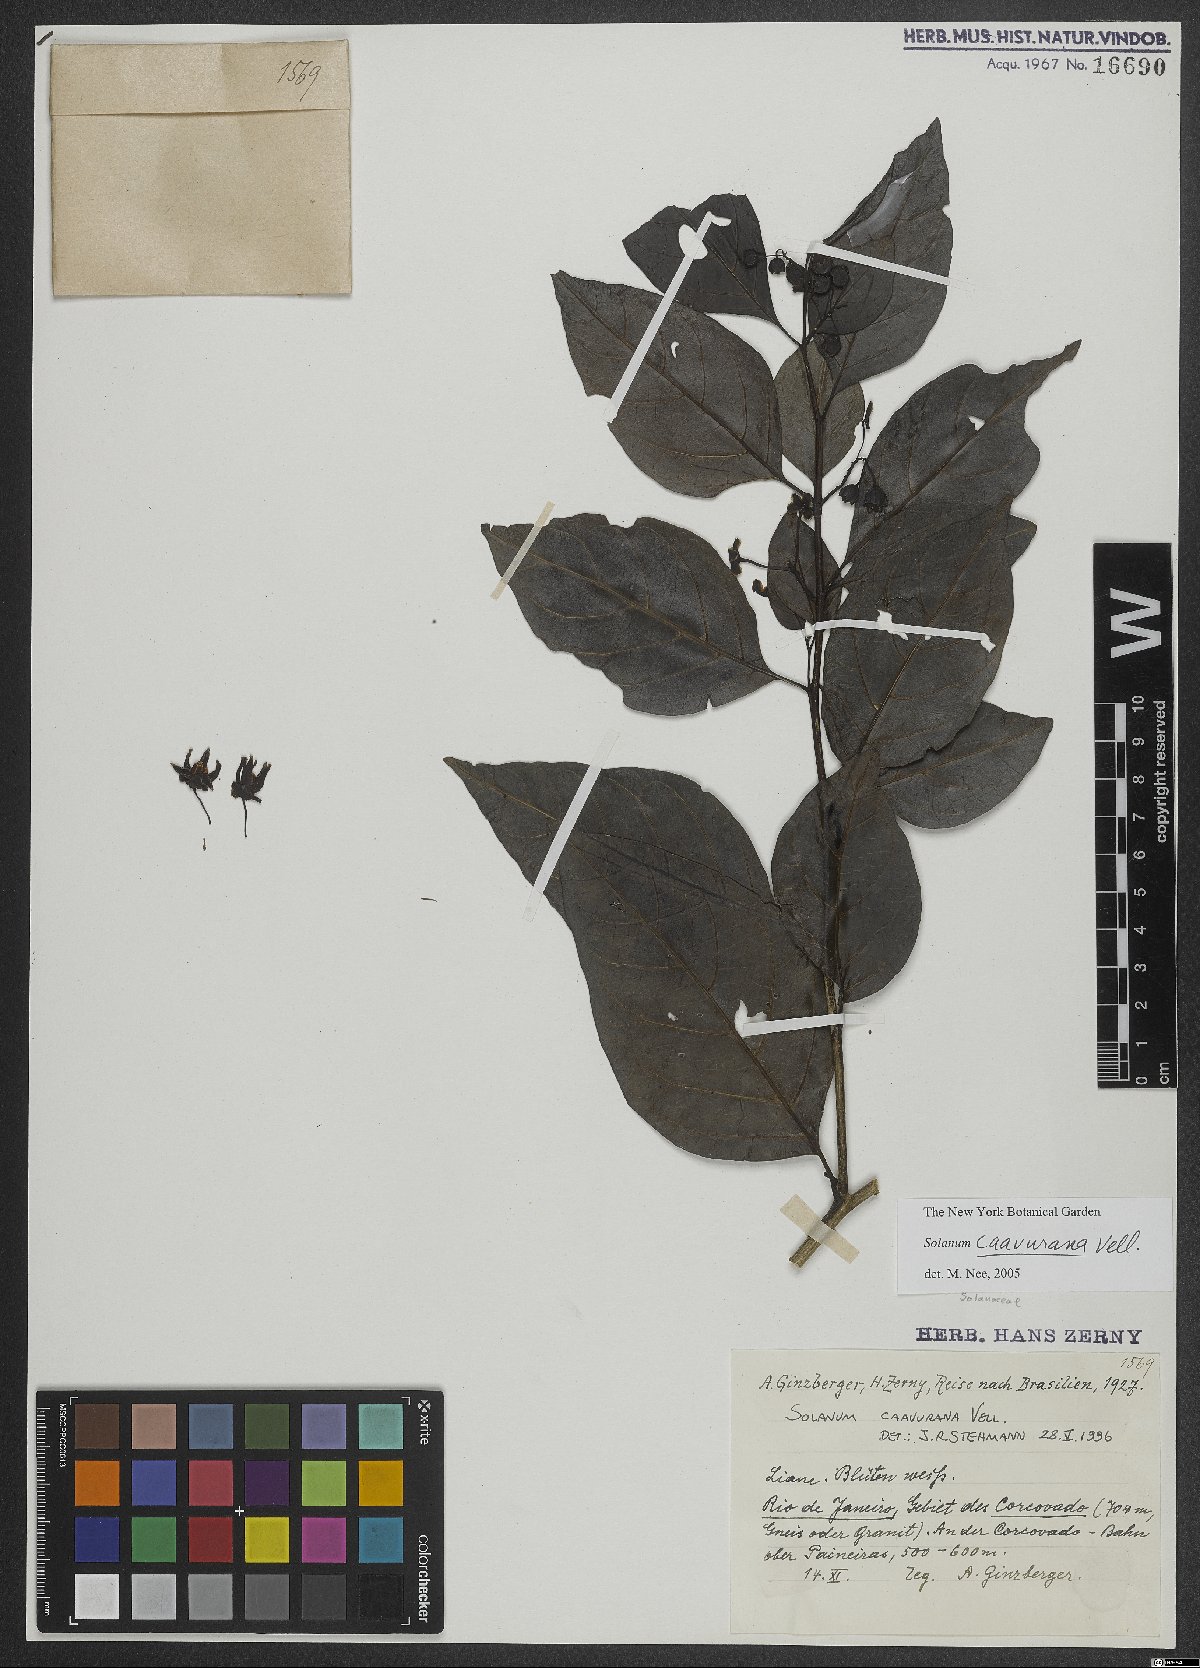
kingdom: Plantae
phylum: Tracheophyta
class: Magnoliopsida
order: Solanales
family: Solanaceae
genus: Solanum
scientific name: Solanum caavurana
